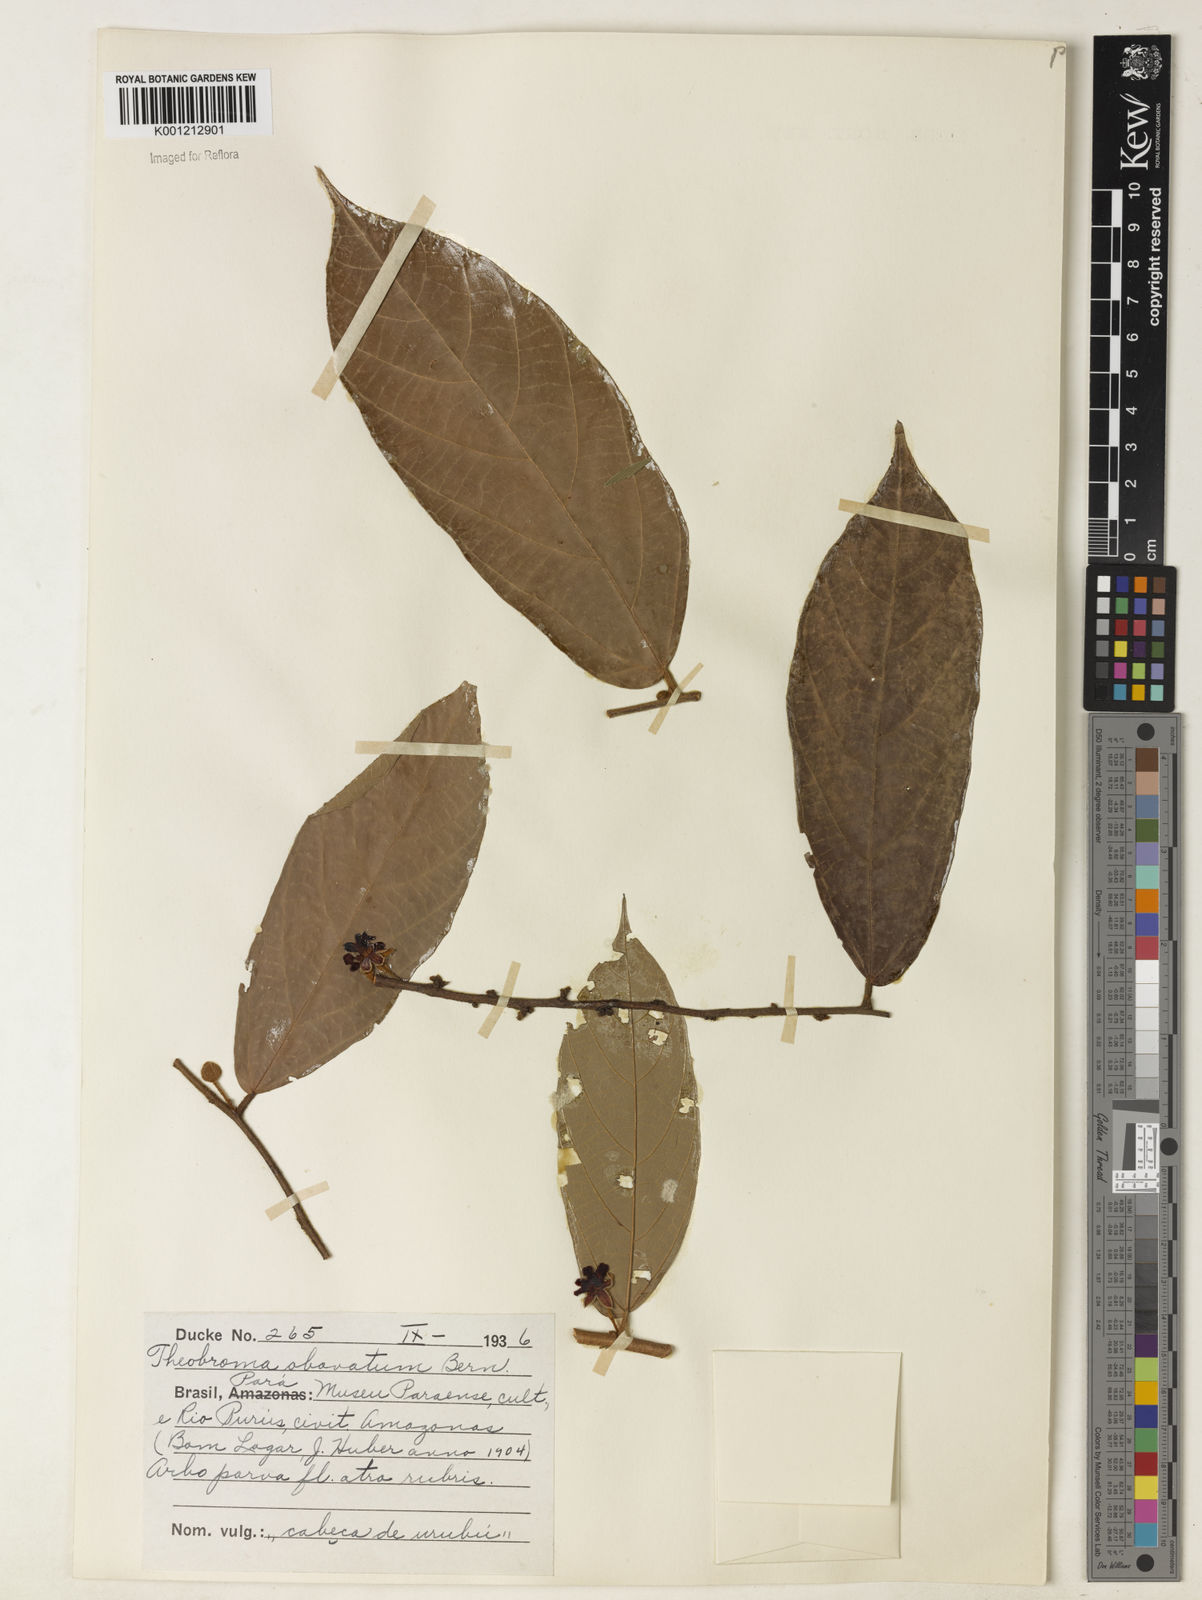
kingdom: Plantae
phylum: Tracheophyta
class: Magnoliopsida
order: Malvales
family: Malvaceae
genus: Theobroma
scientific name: Theobroma obovatum
